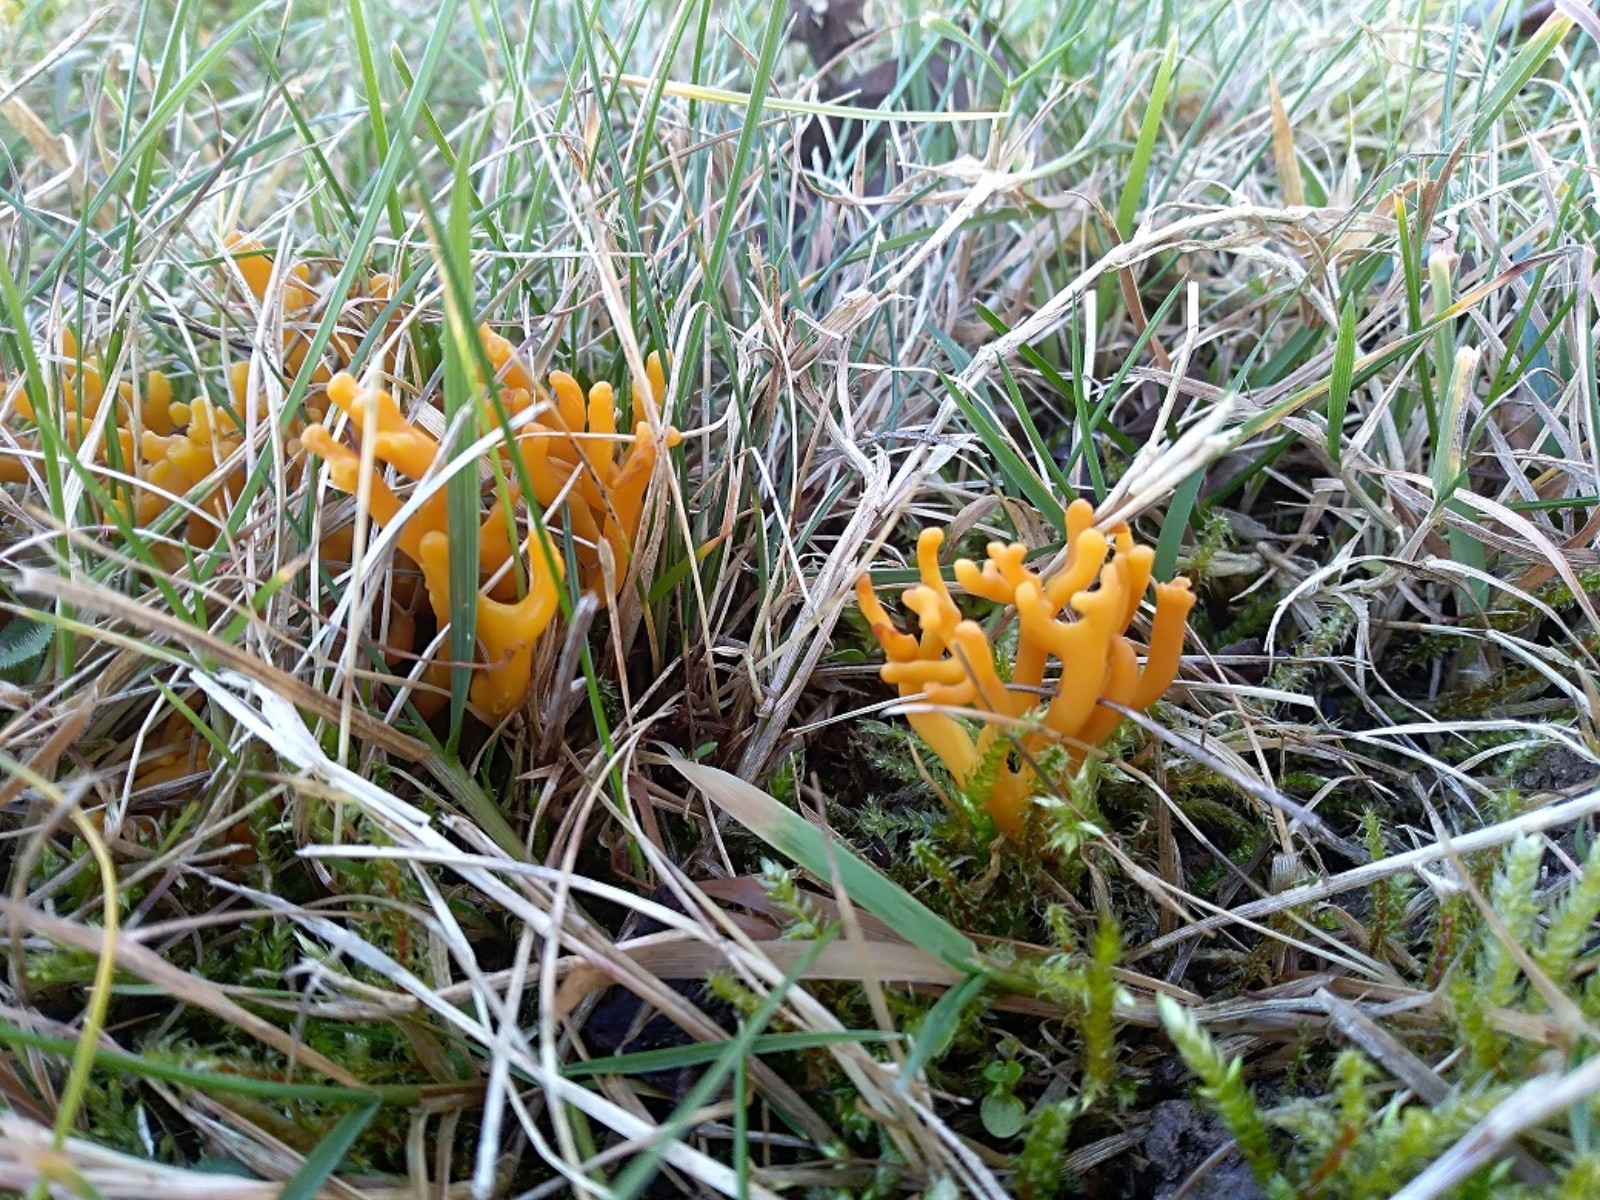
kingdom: Fungi
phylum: Basidiomycota
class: Agaricomycetes
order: Agaricales
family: Clavariaceae
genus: Clavulinopsis
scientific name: Clavulinopsis corniculata
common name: eng-køllesvamp
